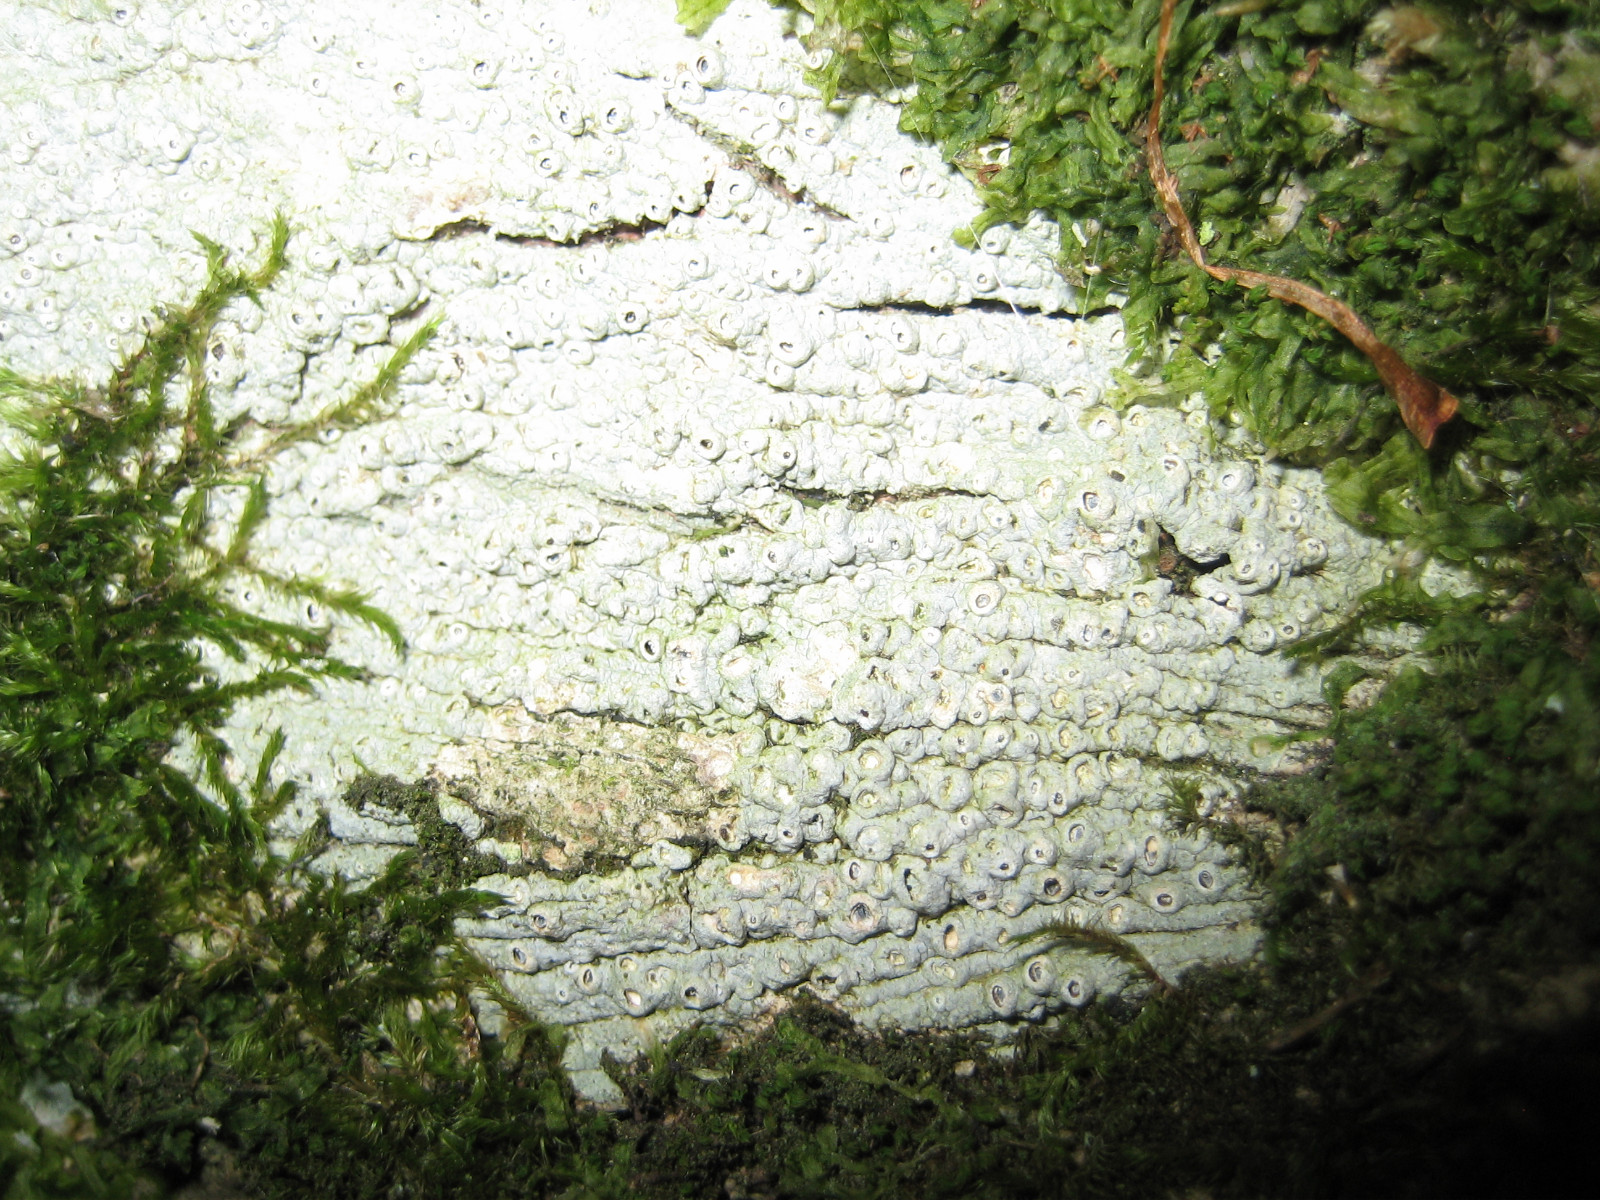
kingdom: Fungi
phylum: Ascomycota
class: Lecanoromycetes
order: Ostropales
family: Graphidaceae
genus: Thelotrema
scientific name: Thelotrema lepadinum
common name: almindelig slørkantlav
